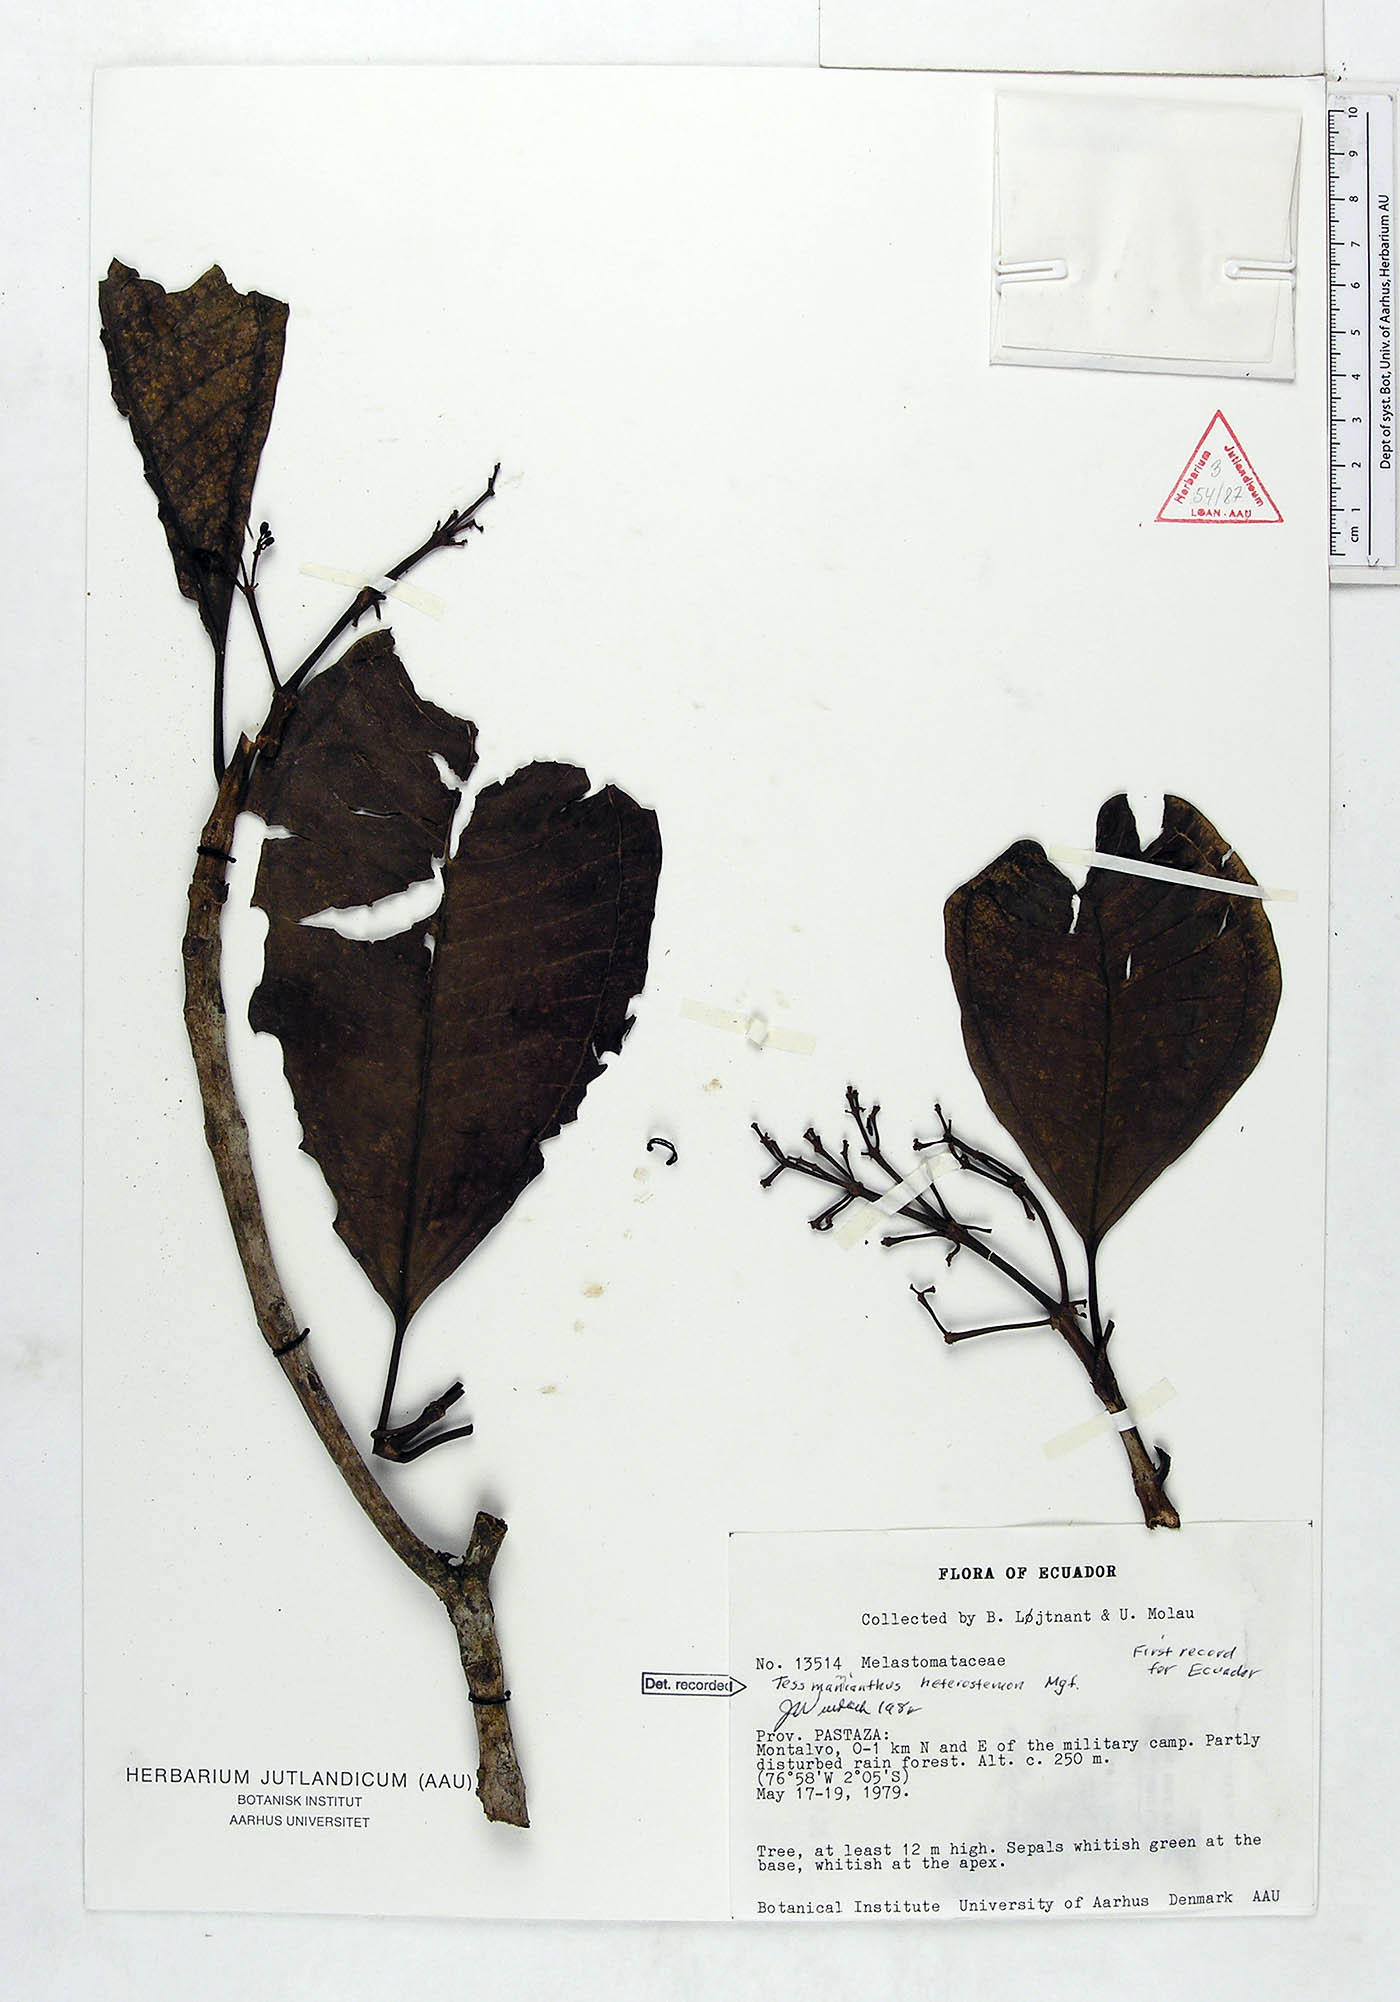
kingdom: Plantae
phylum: Tracheophyta
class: Magnoliopsida
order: Myrtales
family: Melastomataceae
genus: Tessmannianthus
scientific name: Tessmannianthus heterostemon
